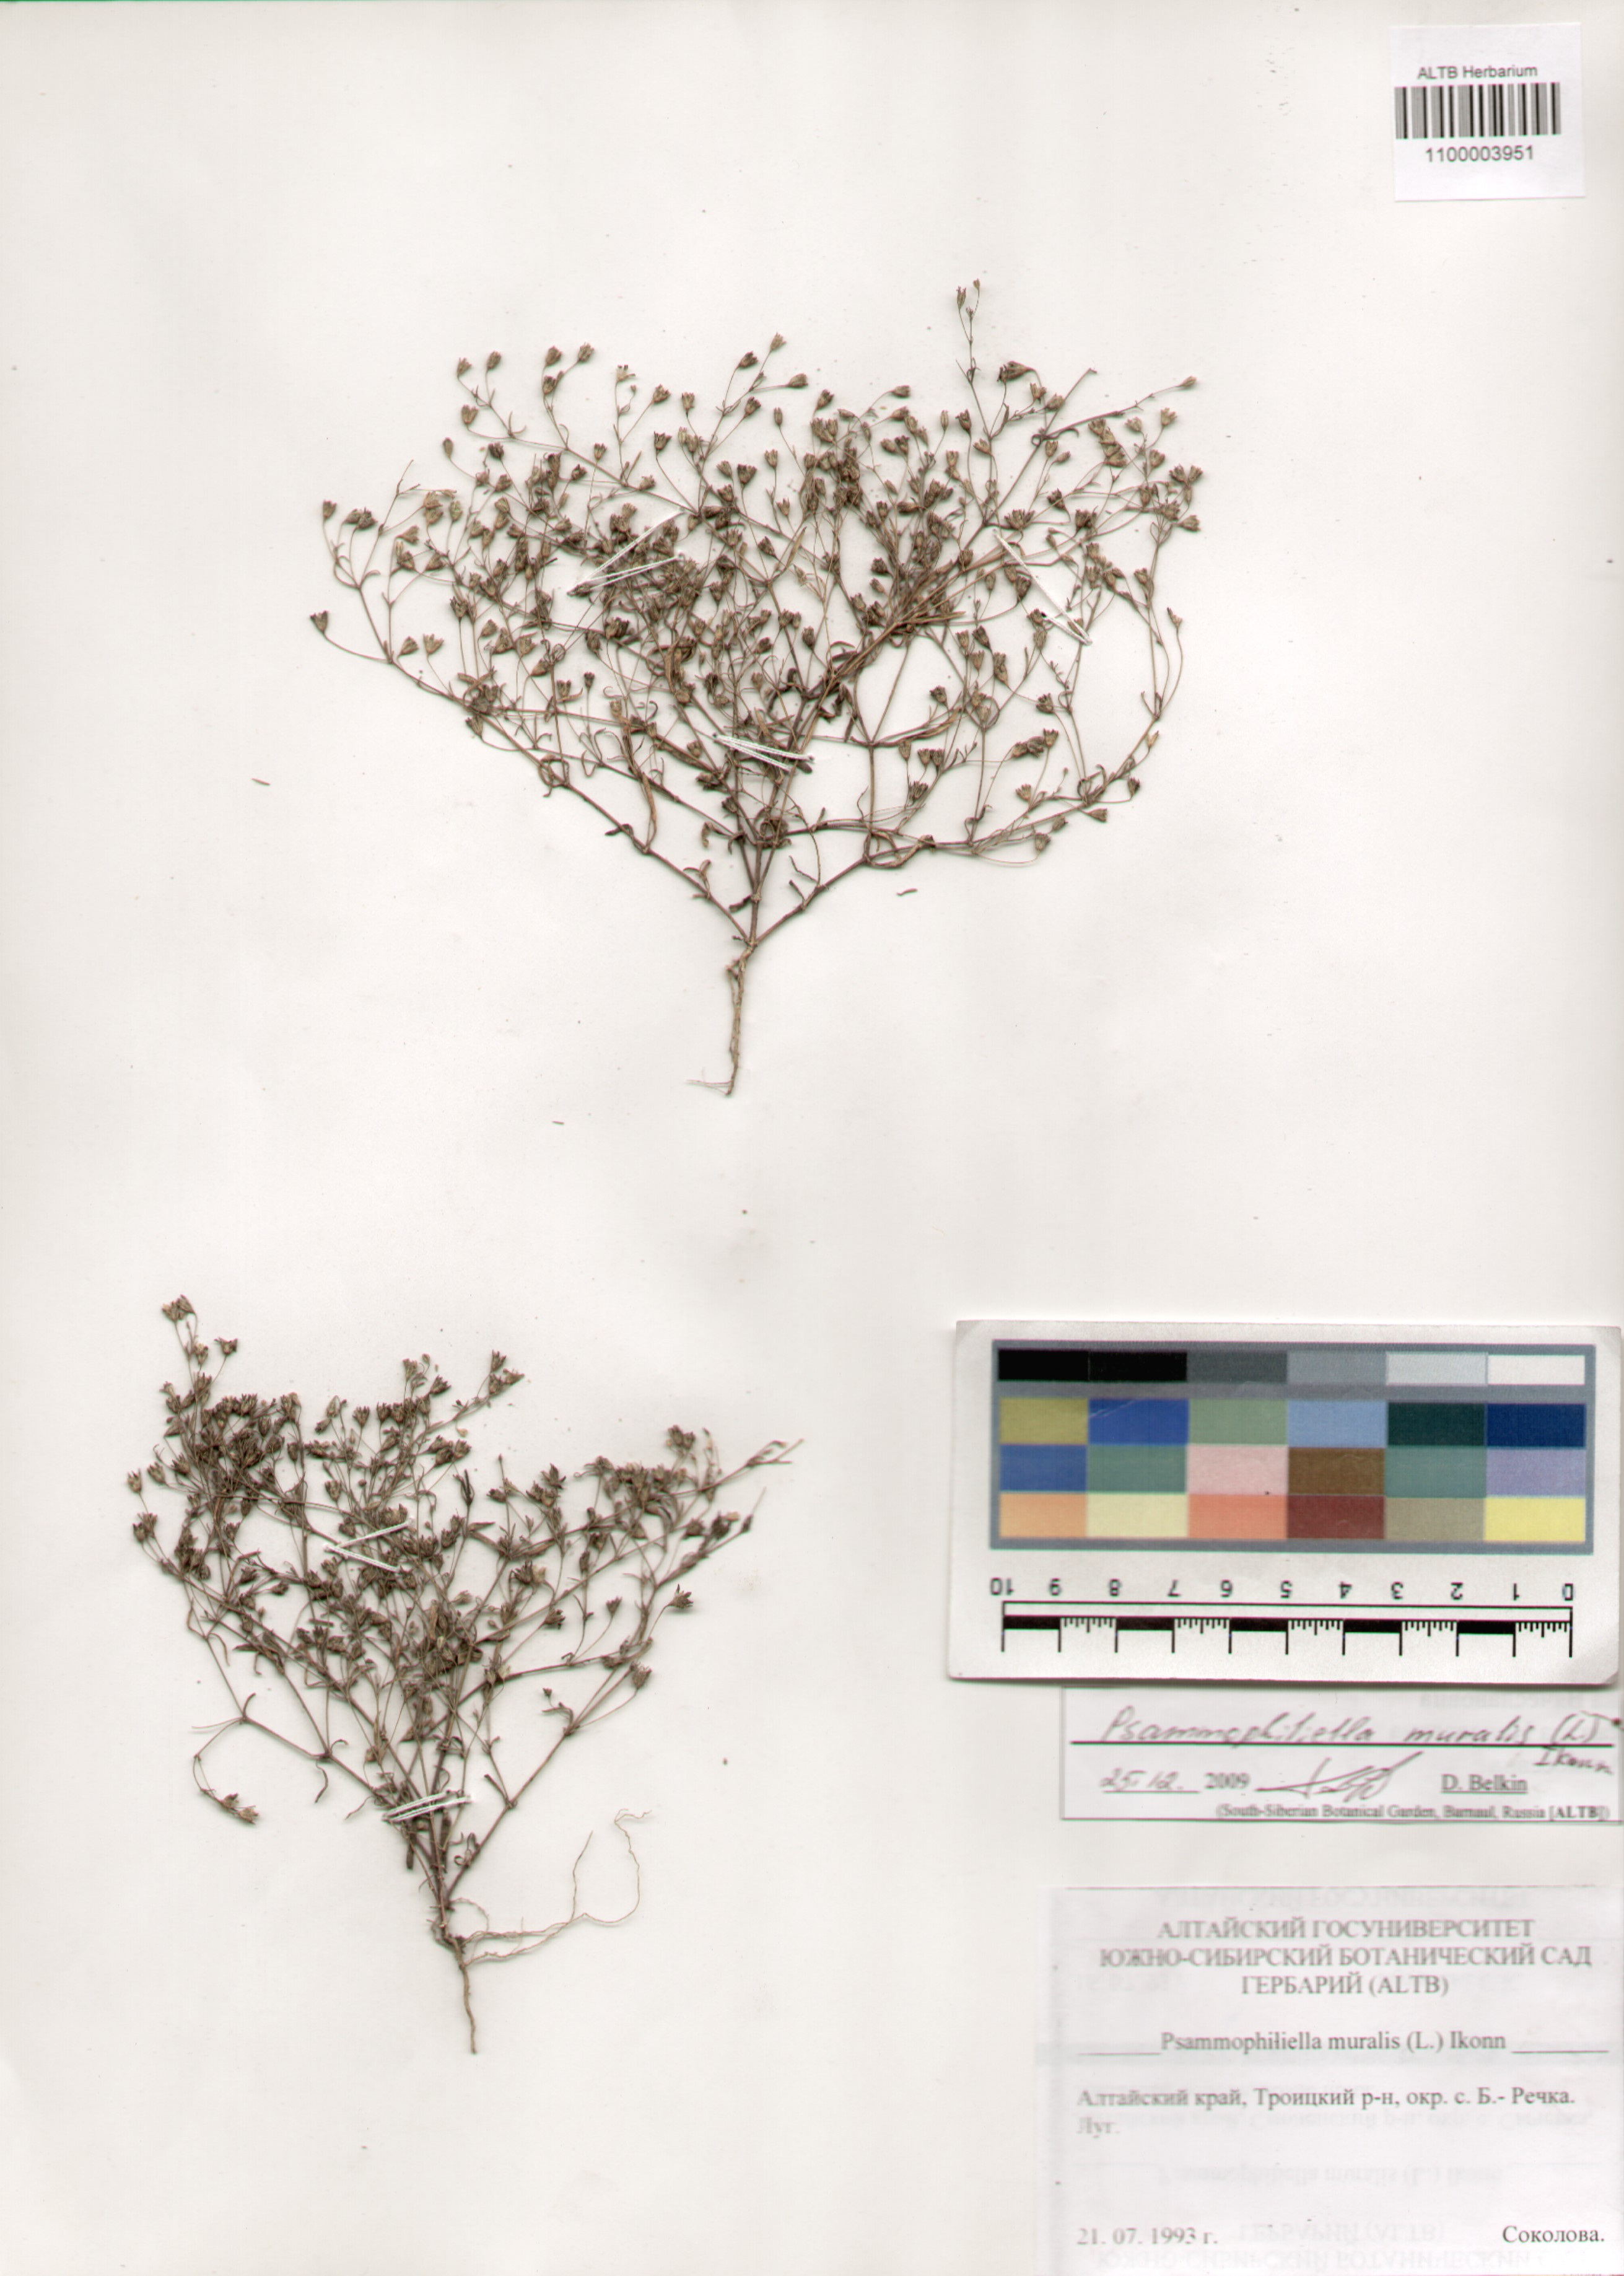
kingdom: Plantae
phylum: Tracheophyta
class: Magnoliopsida
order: Caryophyllales
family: Caryophyllaceae
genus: Psammophiliella
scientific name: Psammophiliella muralis
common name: Cushion baby's-breath
